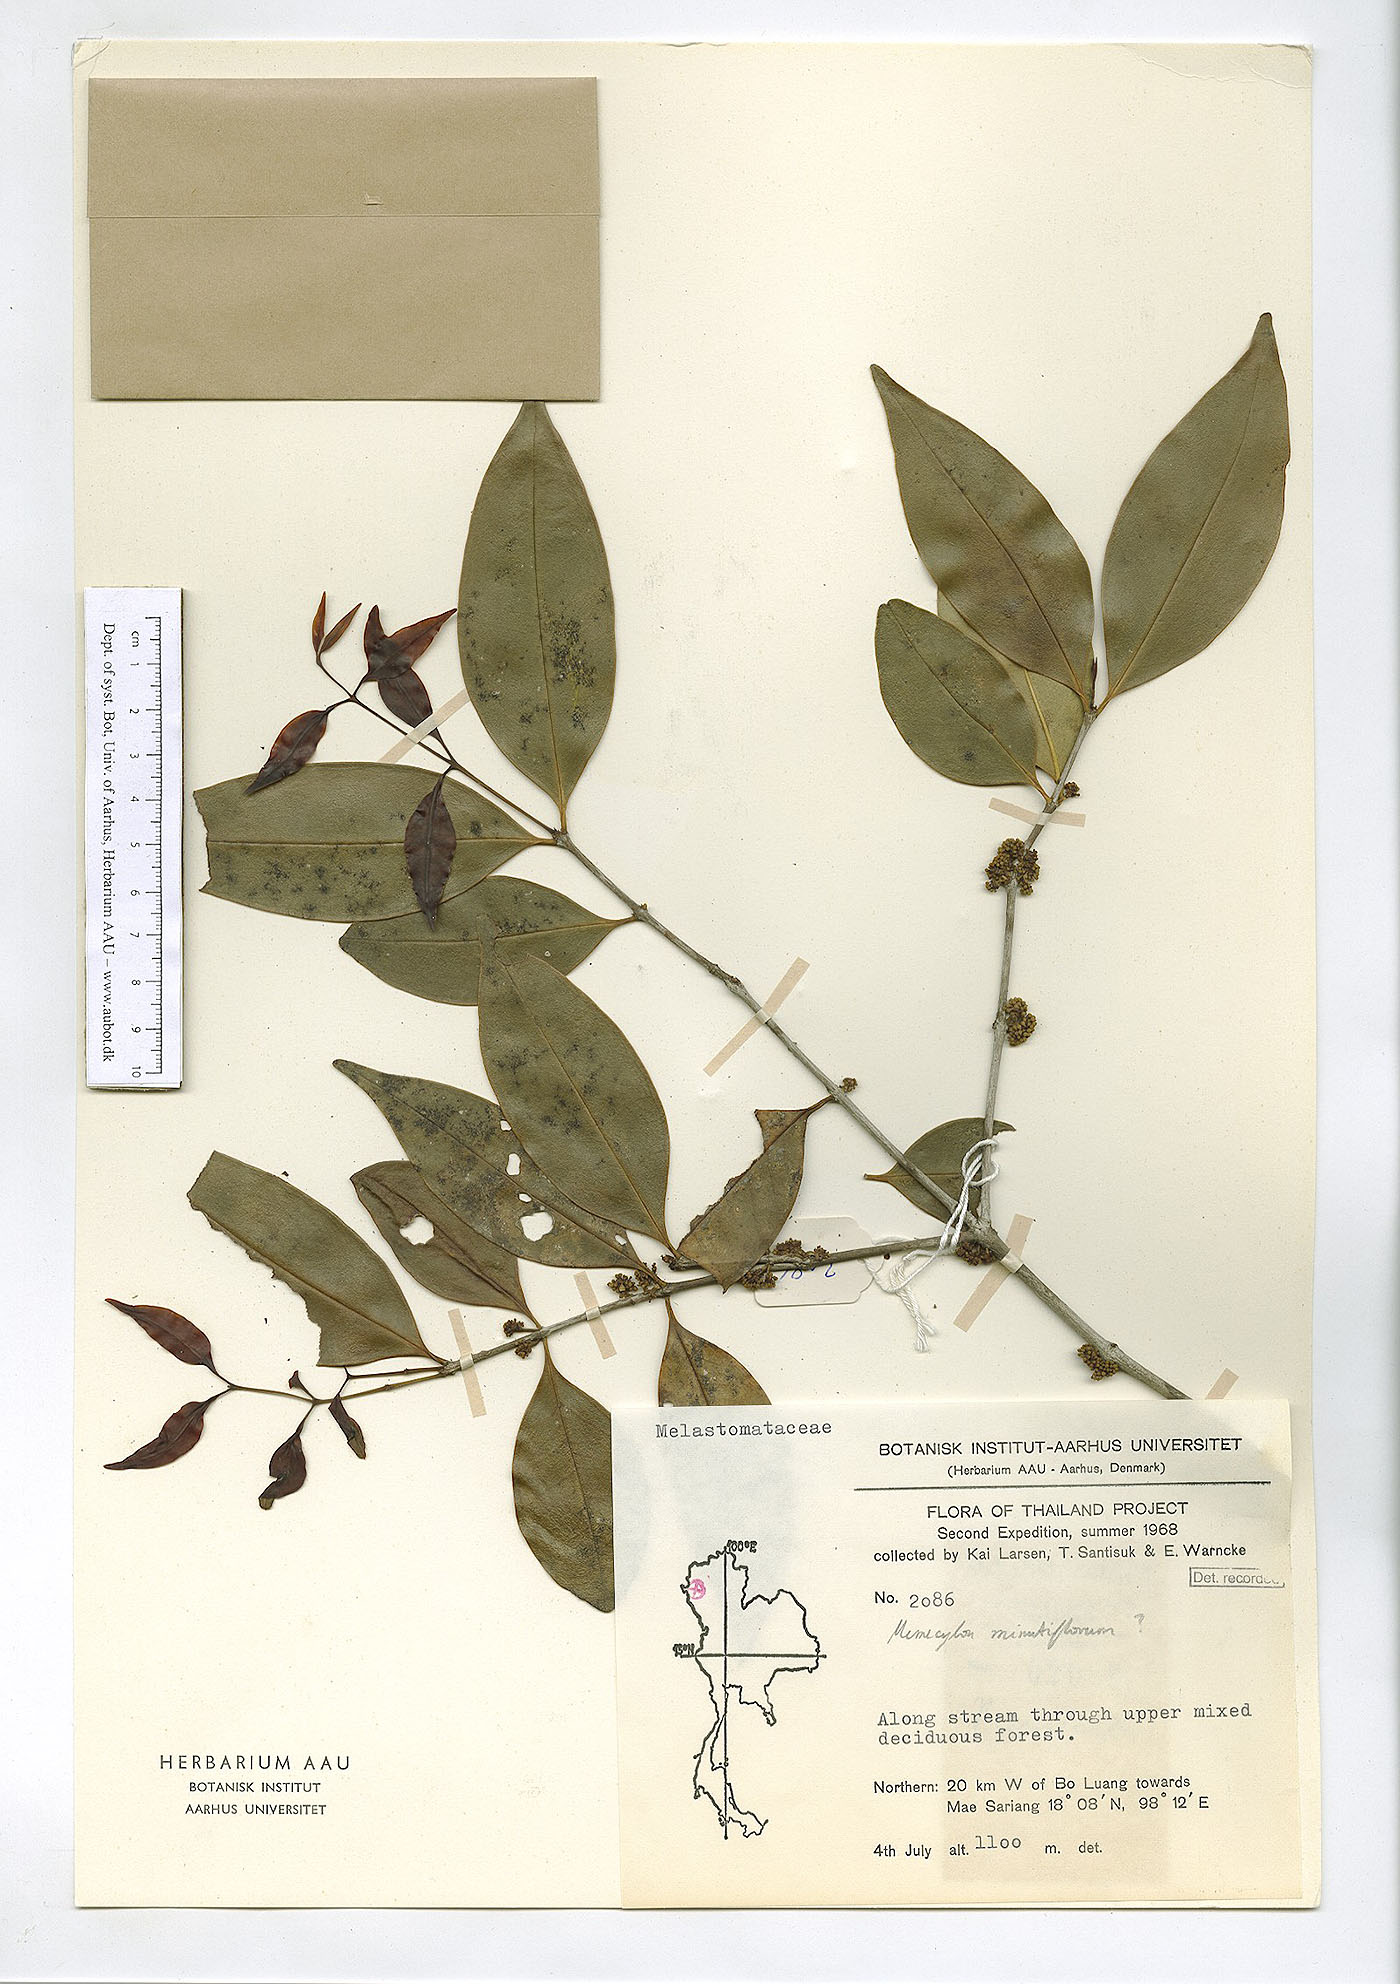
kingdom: Plantae
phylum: Tracheophyta
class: Magnoliopsida
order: Myrtales
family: Melastomataceae
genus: Memecylon
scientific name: Memecylon plebejum
